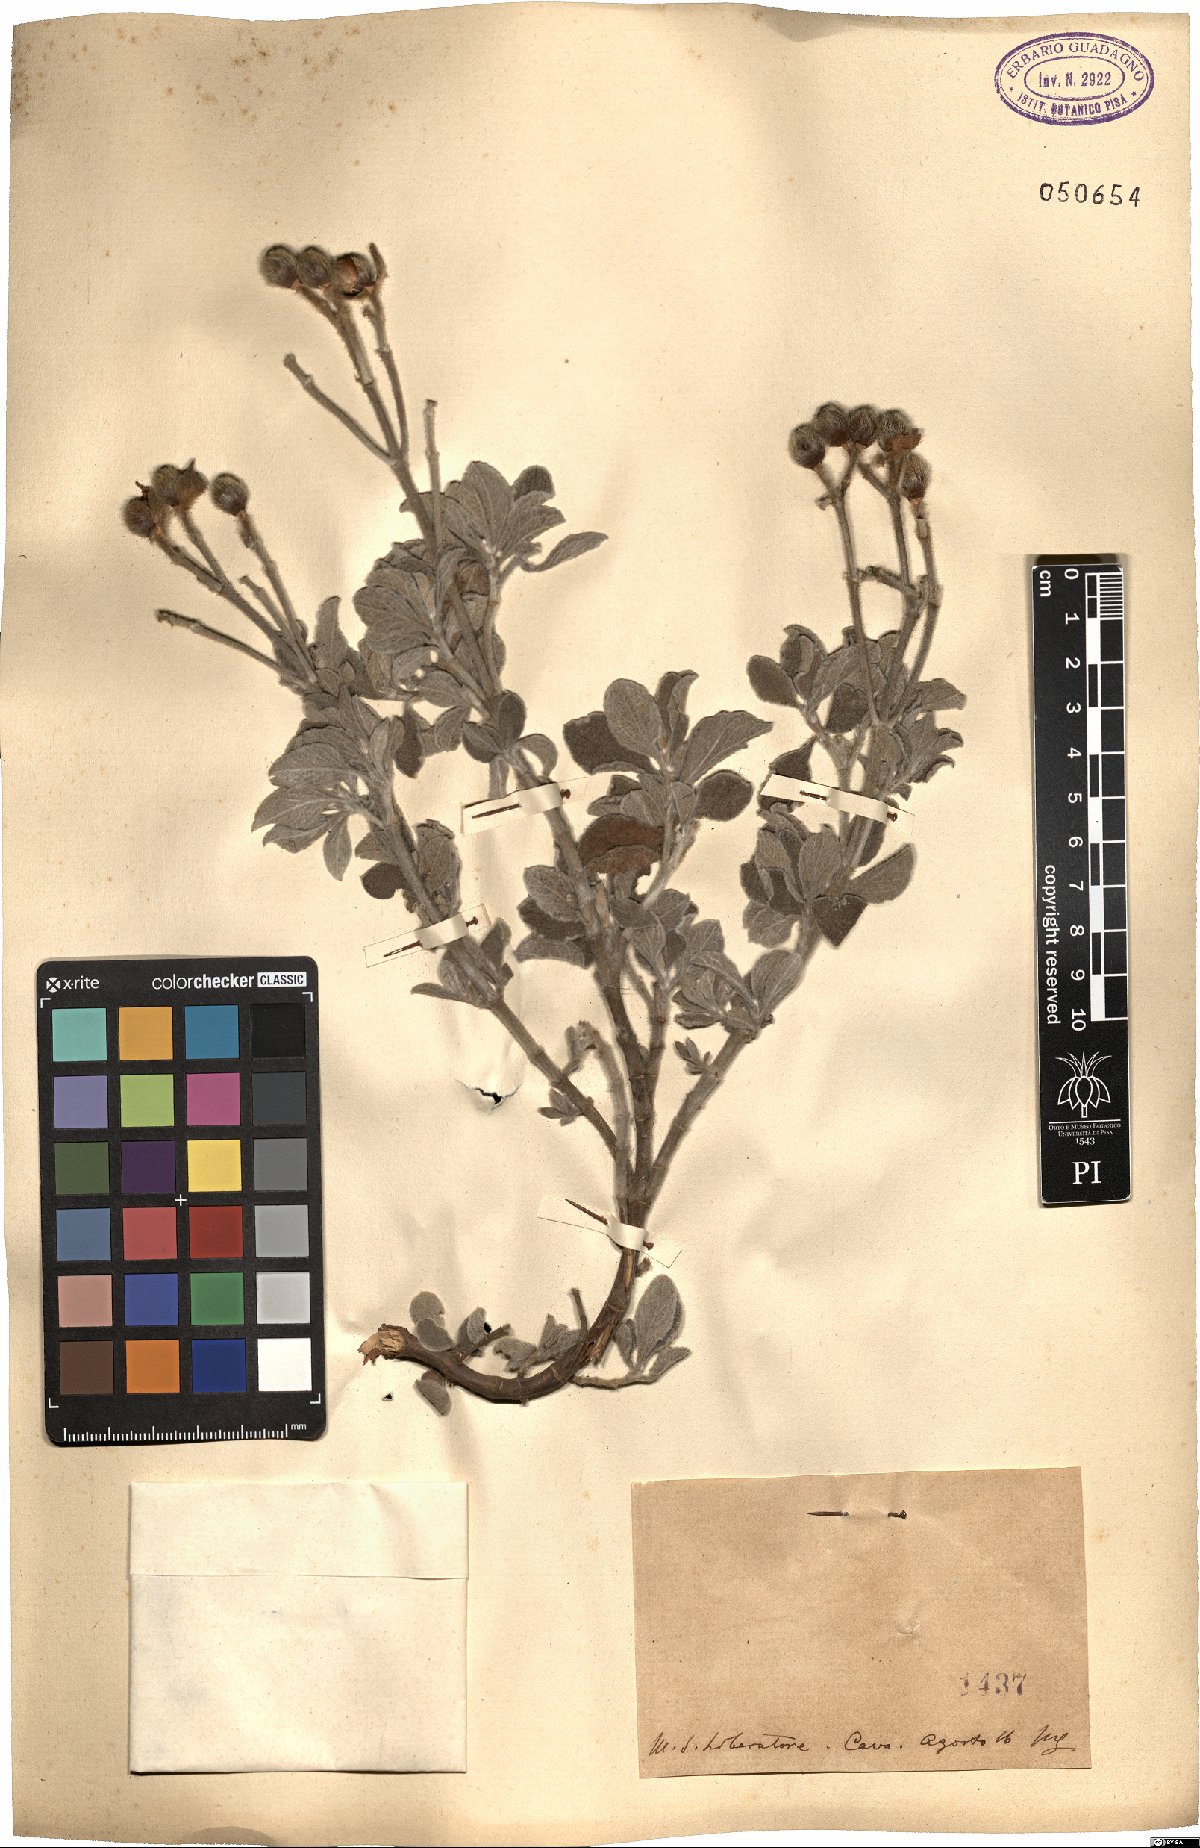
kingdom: Plantae
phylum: Tracheophyta
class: Magnoliopsida
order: Malvales
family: Cistaceae
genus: Cistus
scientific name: Cistus
